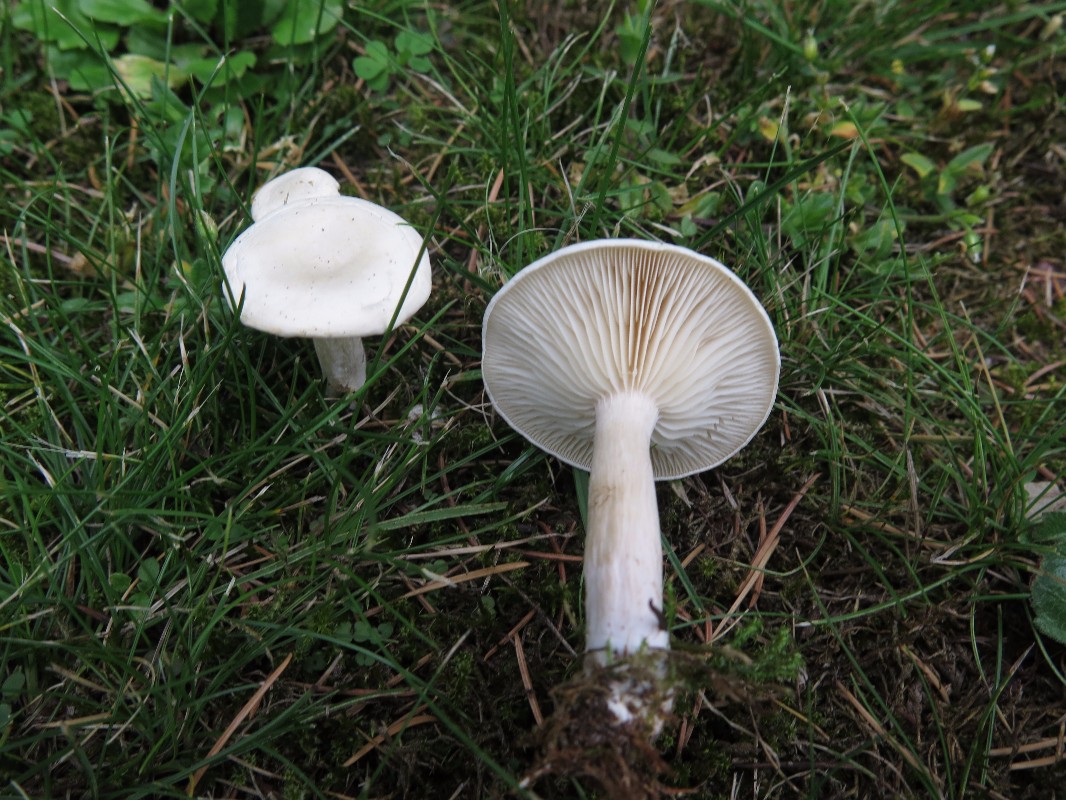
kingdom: Fungi
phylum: Basidiomycota
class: Agaricomycetes
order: Agaricales
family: Tricholomataceae
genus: Clitocybe
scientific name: Clitocybe
